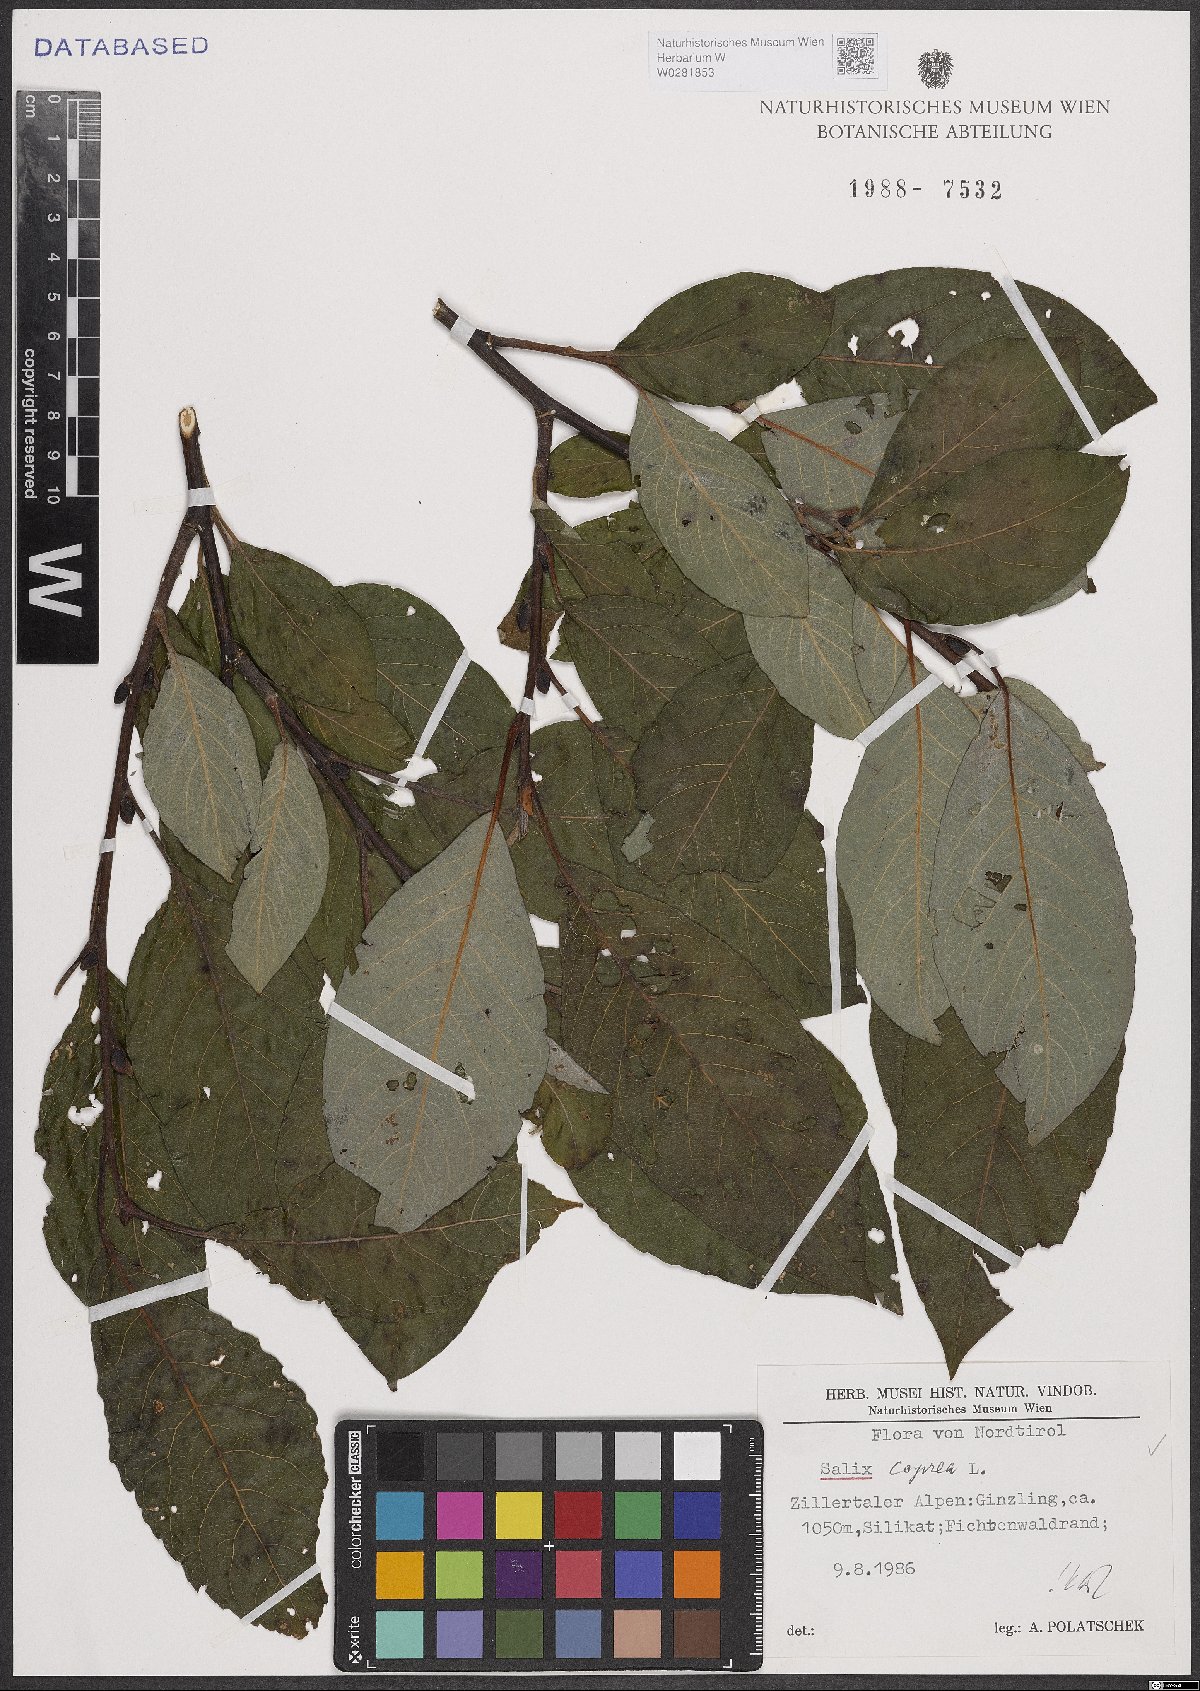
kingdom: Plantae
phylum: Tracheophyta
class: Magnoliopsida
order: Malpighiales
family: Salicaceae
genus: Salix
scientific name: Salix caprea
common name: Goat willow
